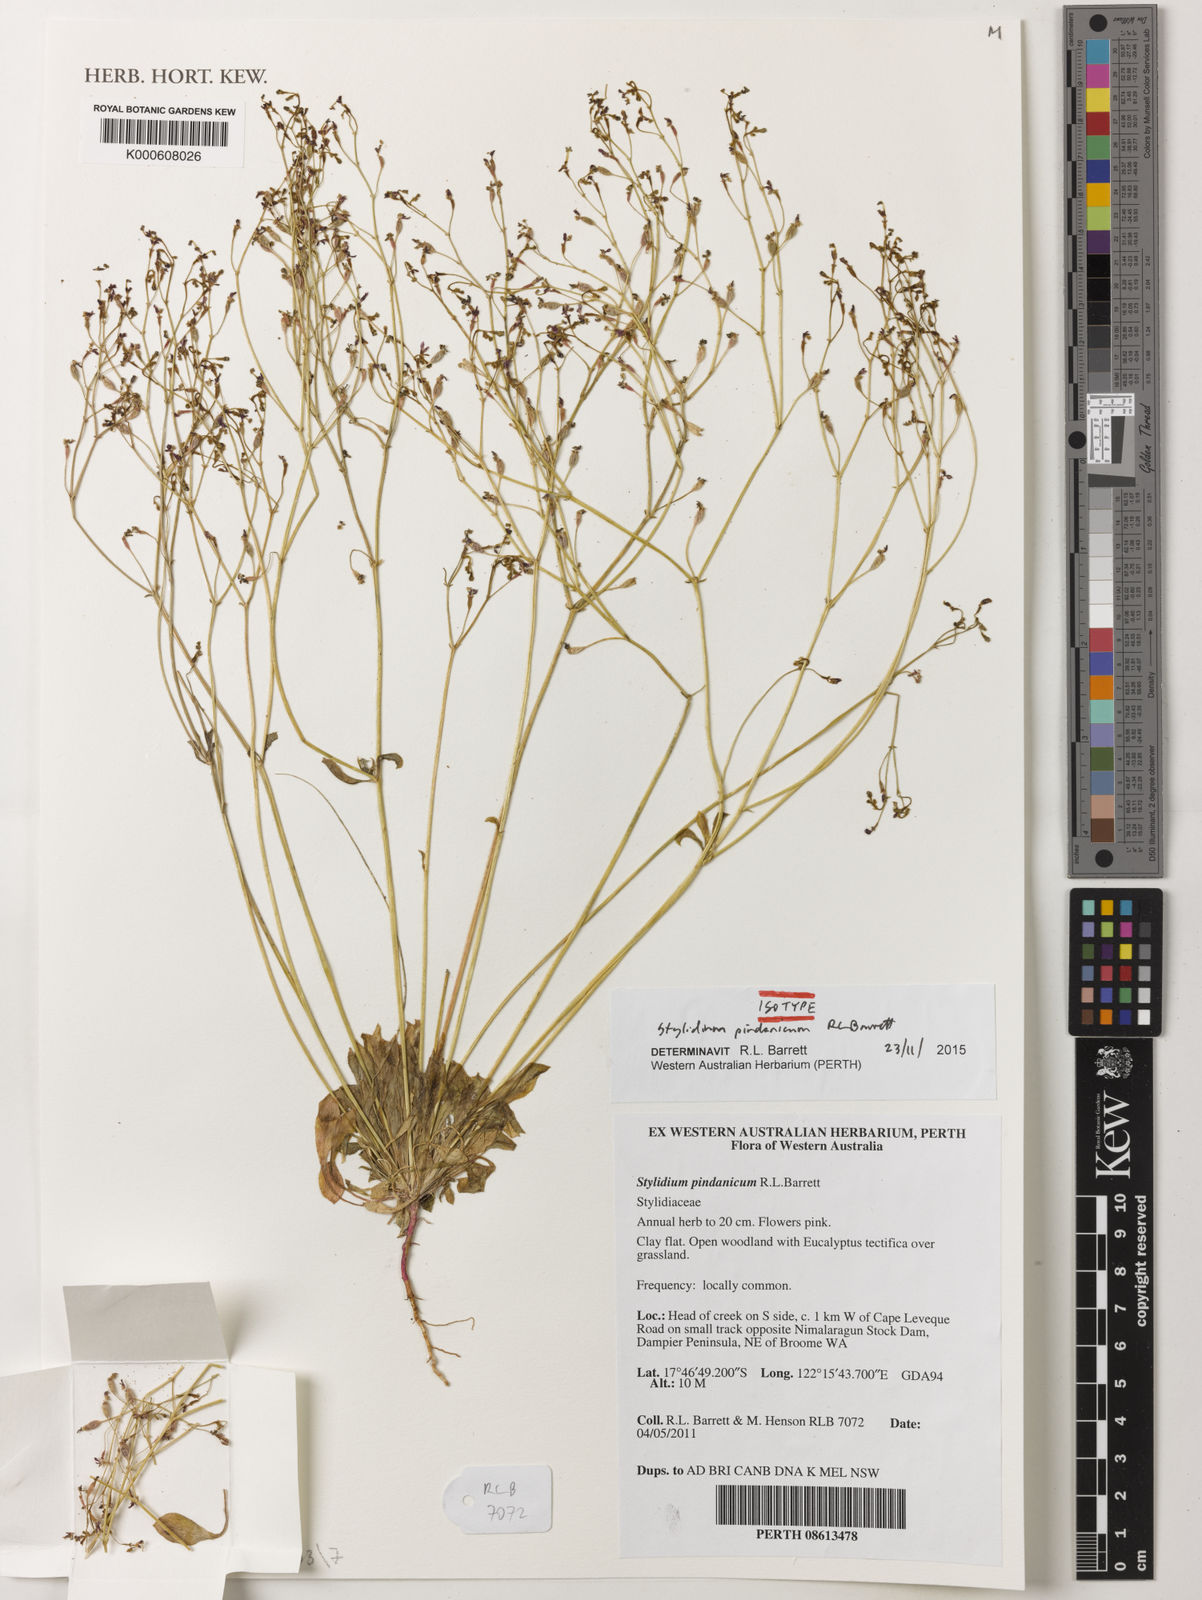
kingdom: Plantae
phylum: Tracheophyta
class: Magnoliopsida
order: Asterales
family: Stylidiaceae
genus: Stylidium
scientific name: Stylidium pindanicum
